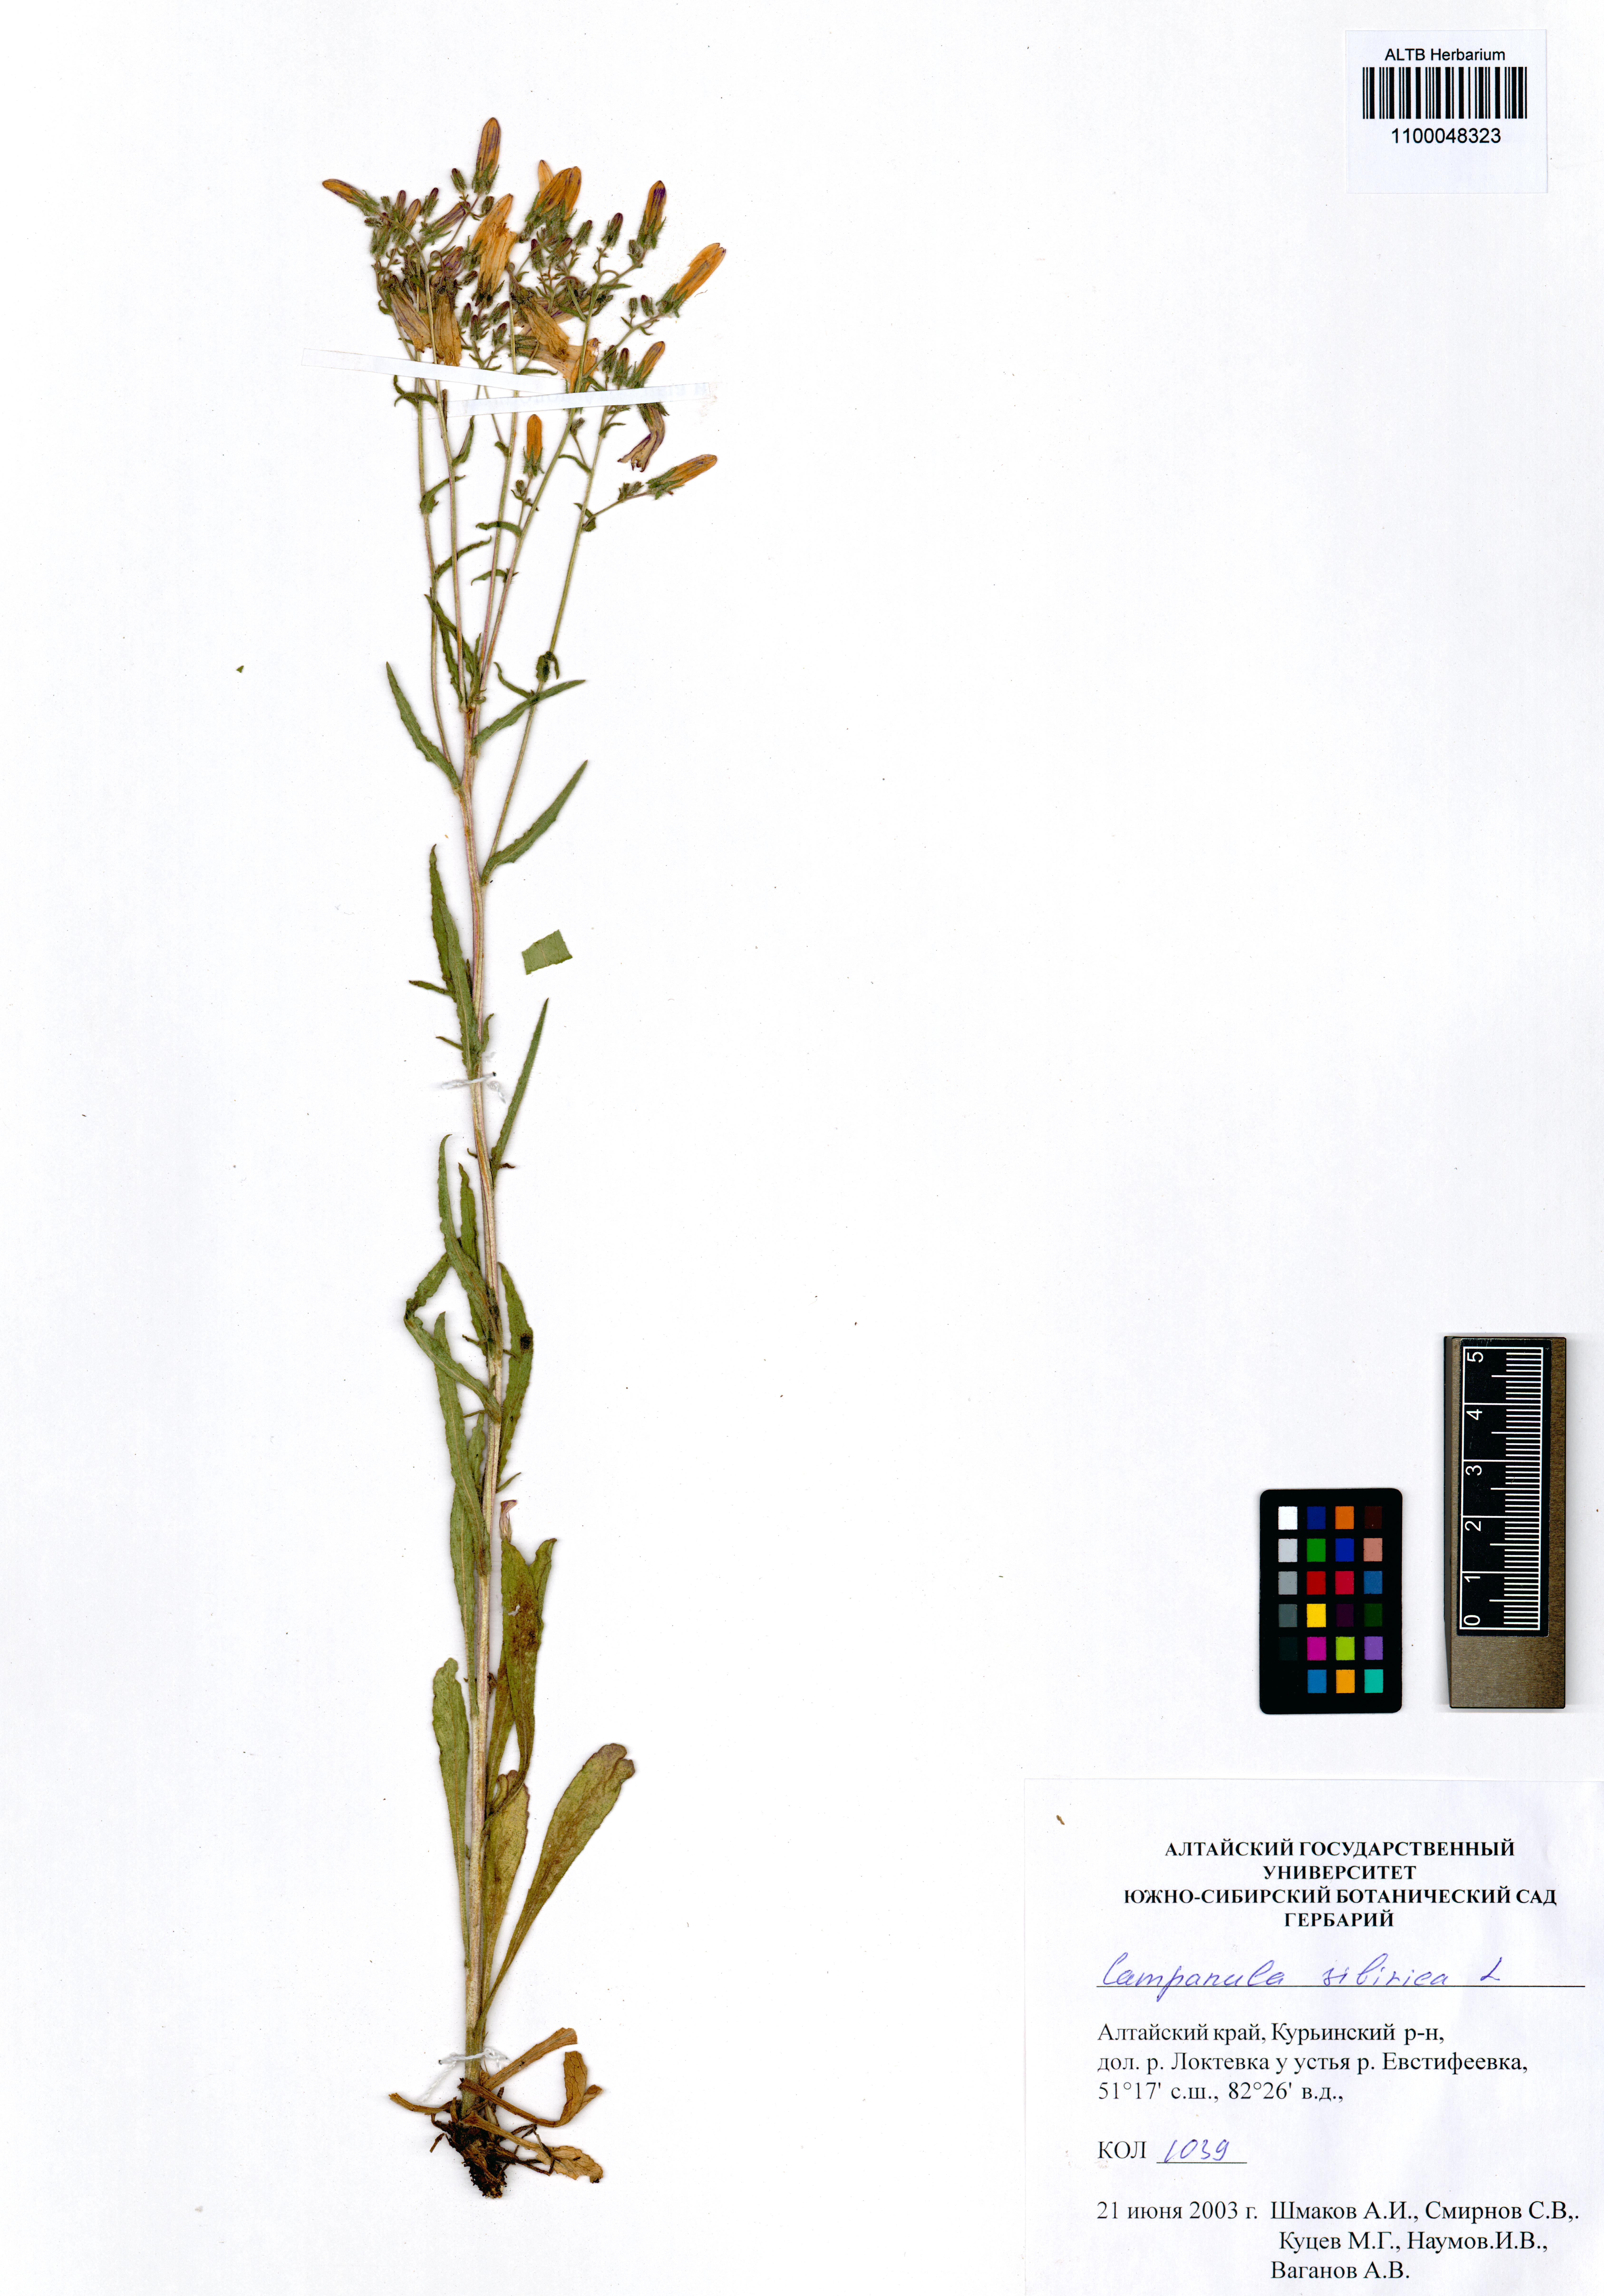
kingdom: Plantae
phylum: Tracheophyta
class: Magnoliopsida
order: Asterales
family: Campanulaceae
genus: Campanula
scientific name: Campanula sibirica
